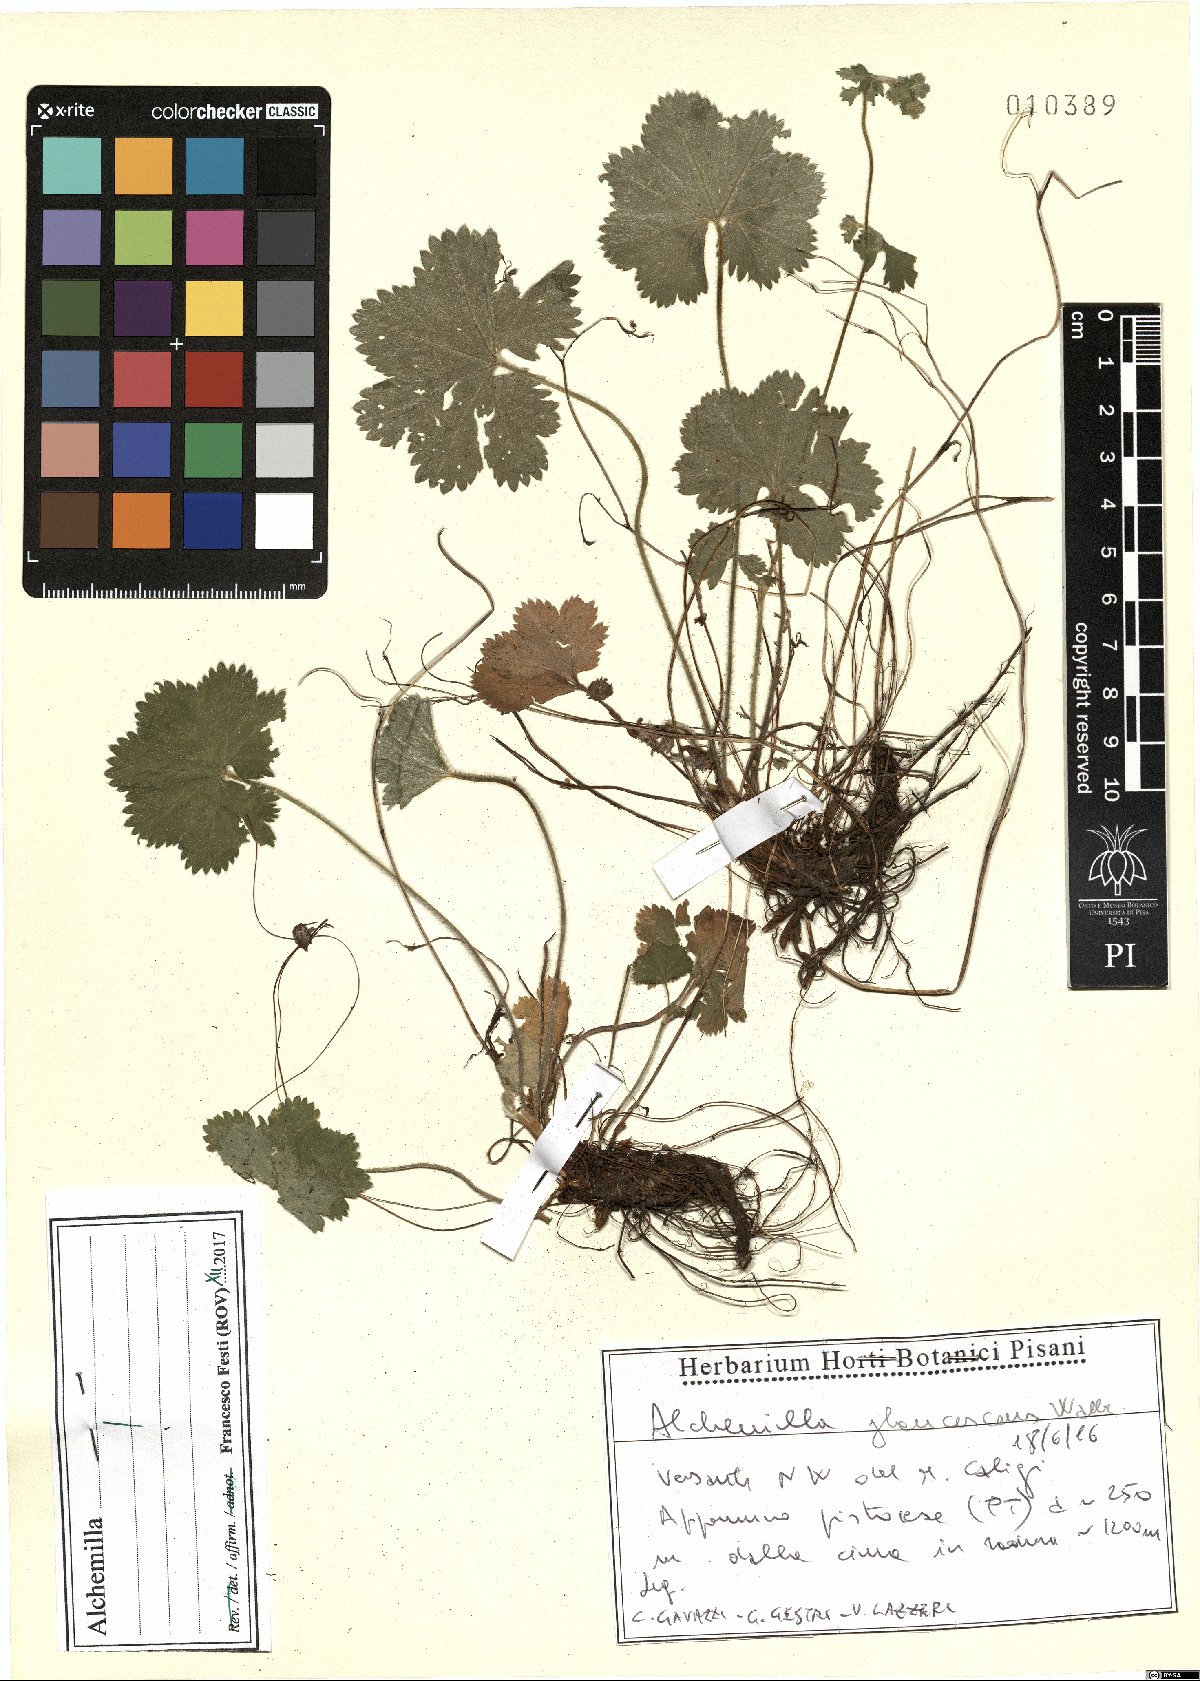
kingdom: Plantae
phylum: Tracheophyta
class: Magnoliopsida
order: Rosales
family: Rosaceae
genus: Alchemilla
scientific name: Alchemilla glaucescens
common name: Silky lady's mantle
